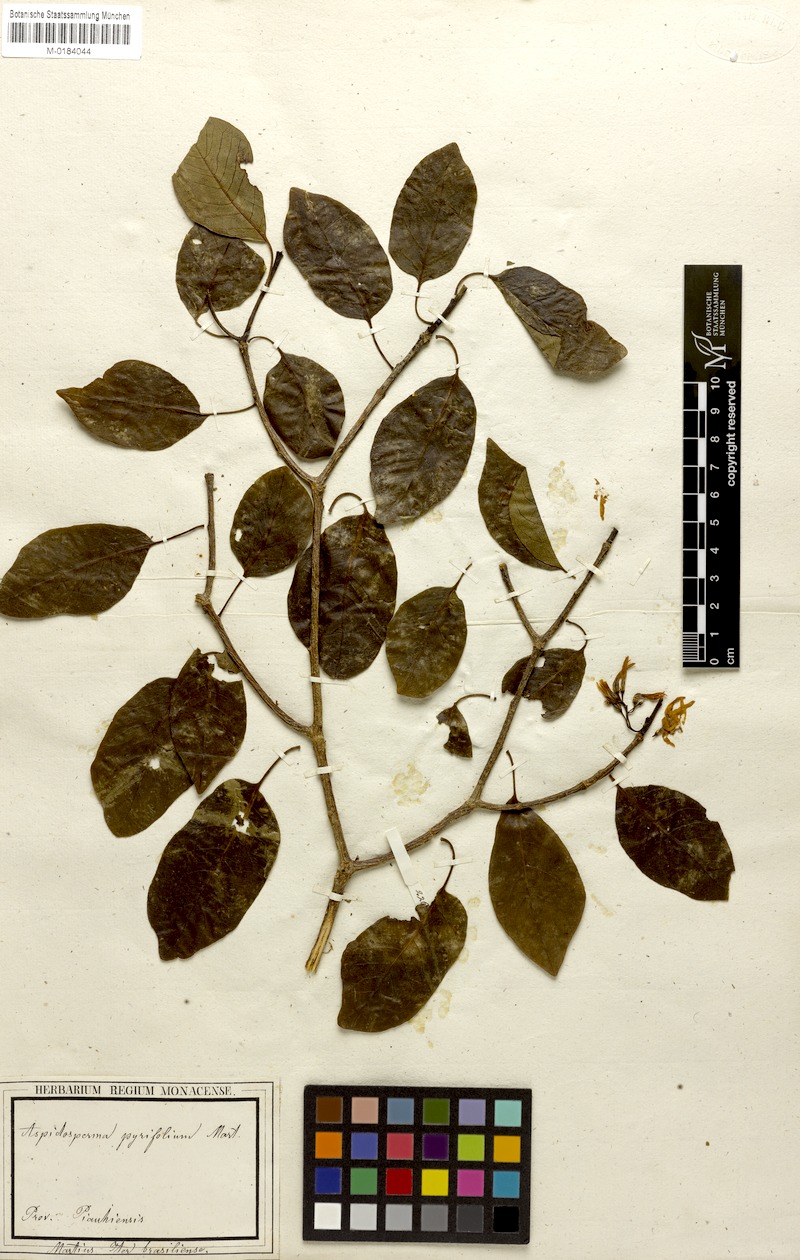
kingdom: Plantae
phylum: Tracheophyta
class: Magnoliopsida
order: Gentianales
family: Apocynaceae
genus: Aspidosperma
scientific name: Aspidosperma pyrifolium
